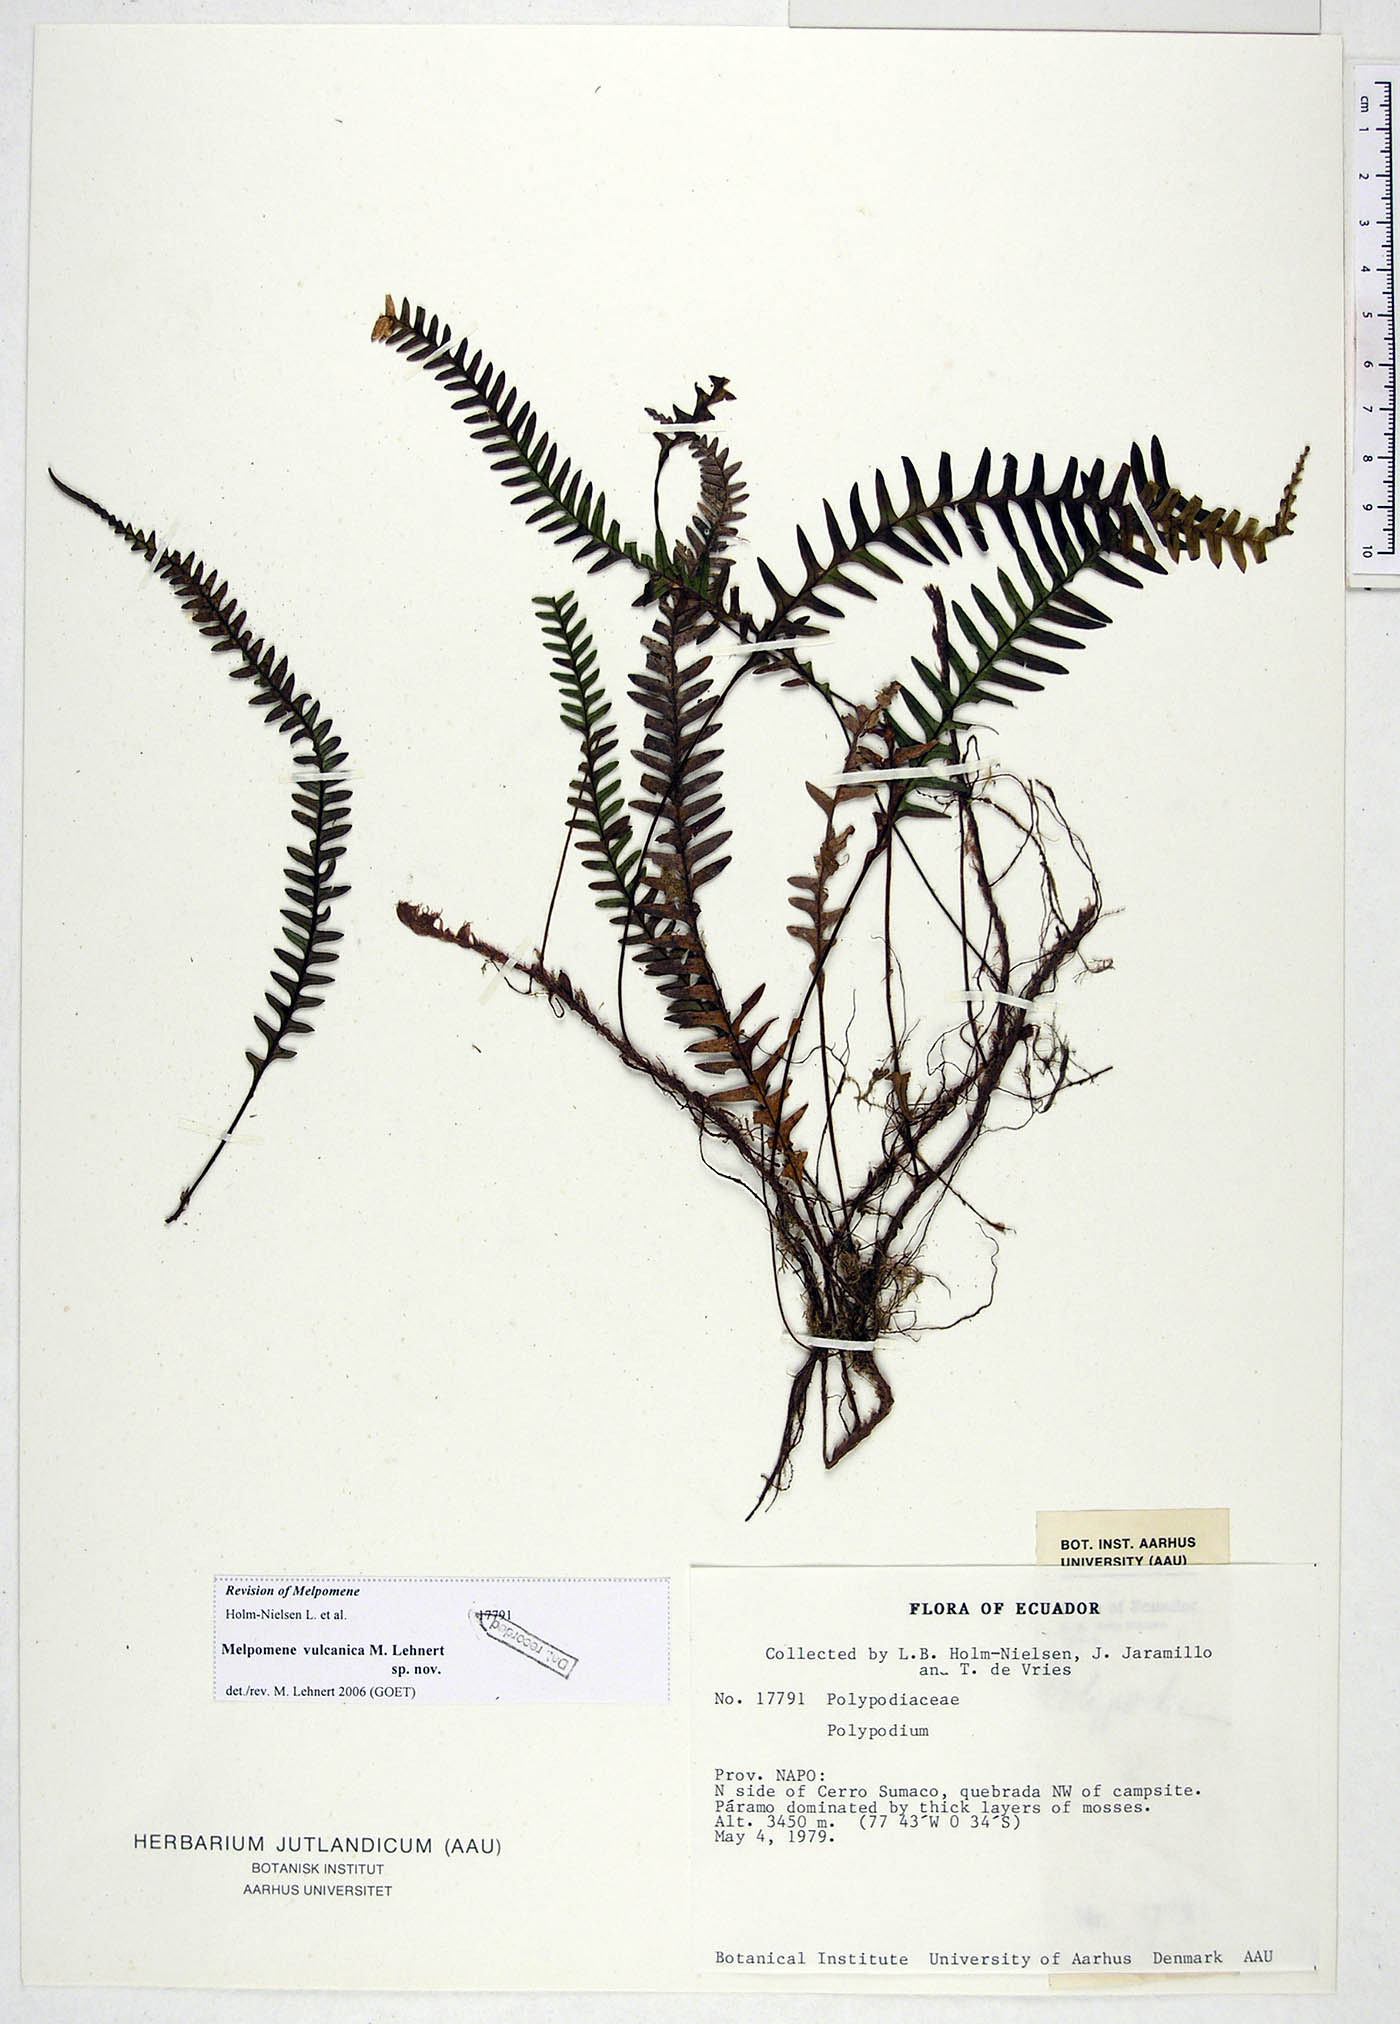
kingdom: Plantae
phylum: Tracheophyta
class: Polypodiopsida
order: Polypodiales
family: Polypodiaceae
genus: Melpomene
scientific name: Melpomene vulcanica
